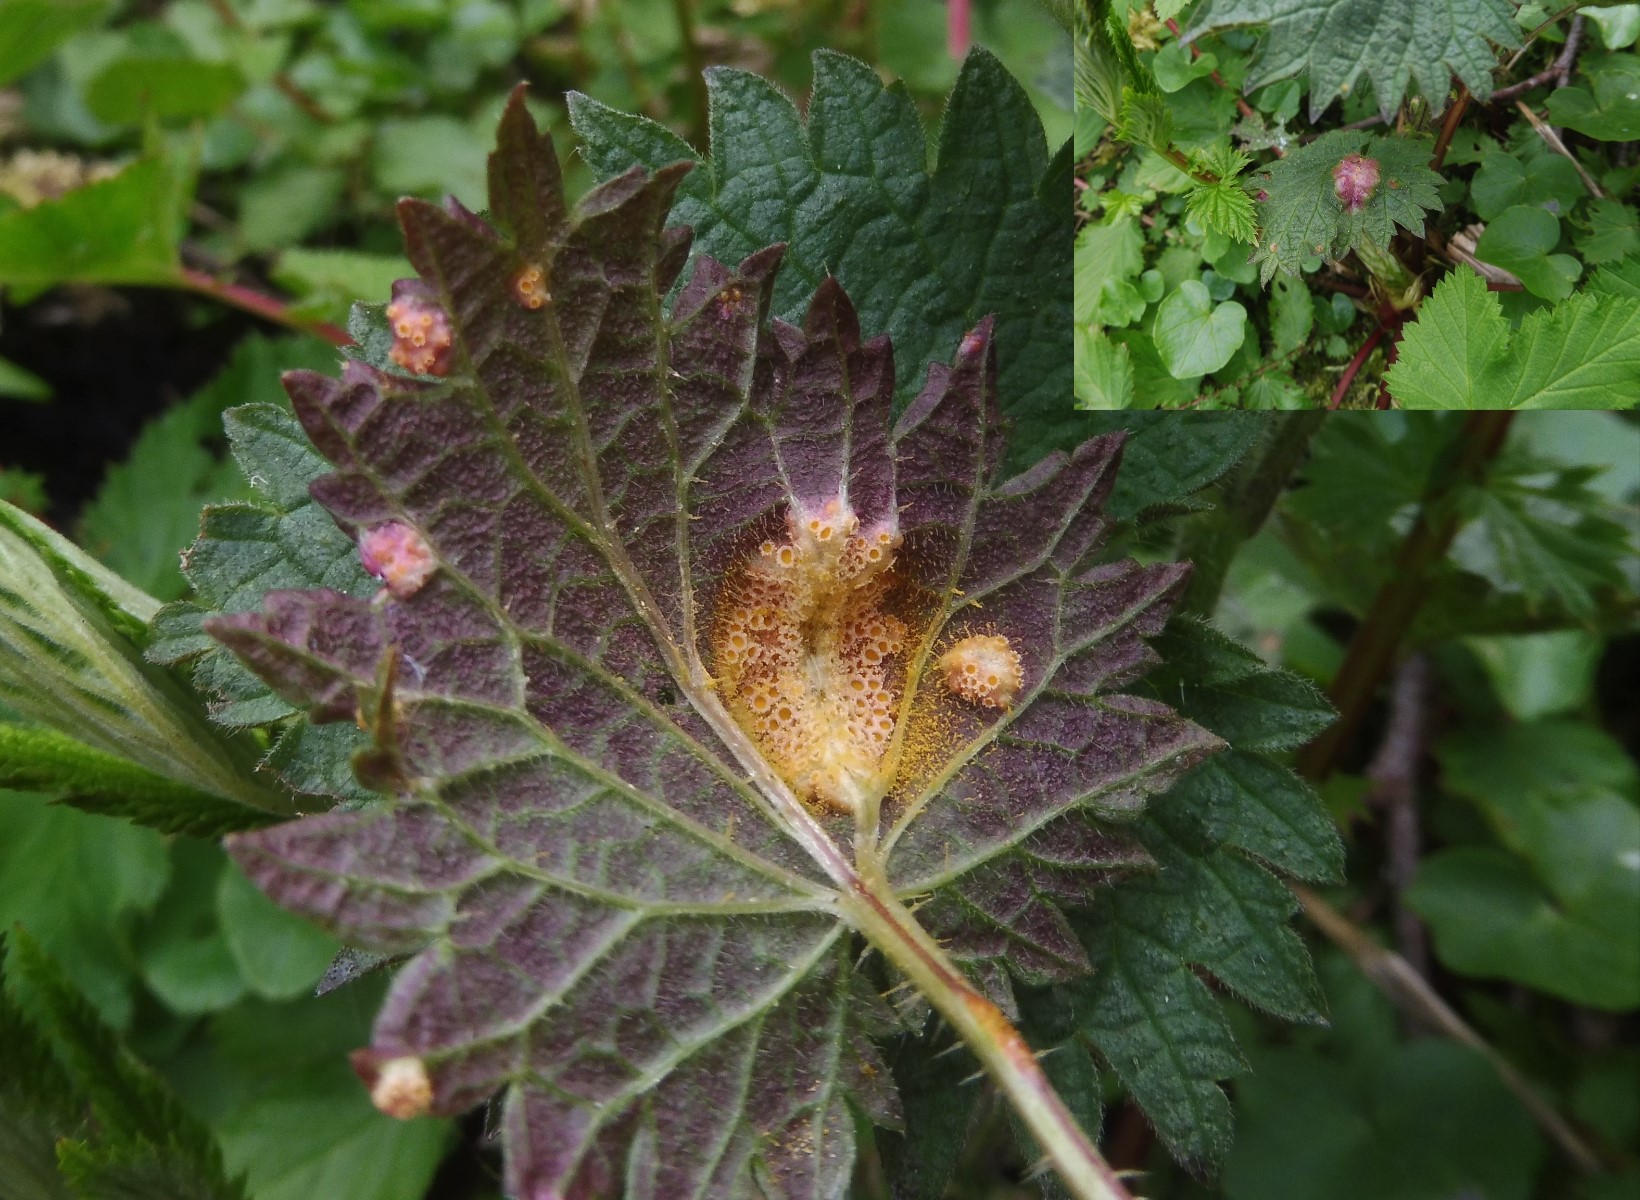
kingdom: Fungi
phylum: Basidiomycota
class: Pucciniomycetes
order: Pucciniales
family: Pucciniaceae
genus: Puccinia
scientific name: Puccinia urticata
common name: nældegalle-tvecellerust
